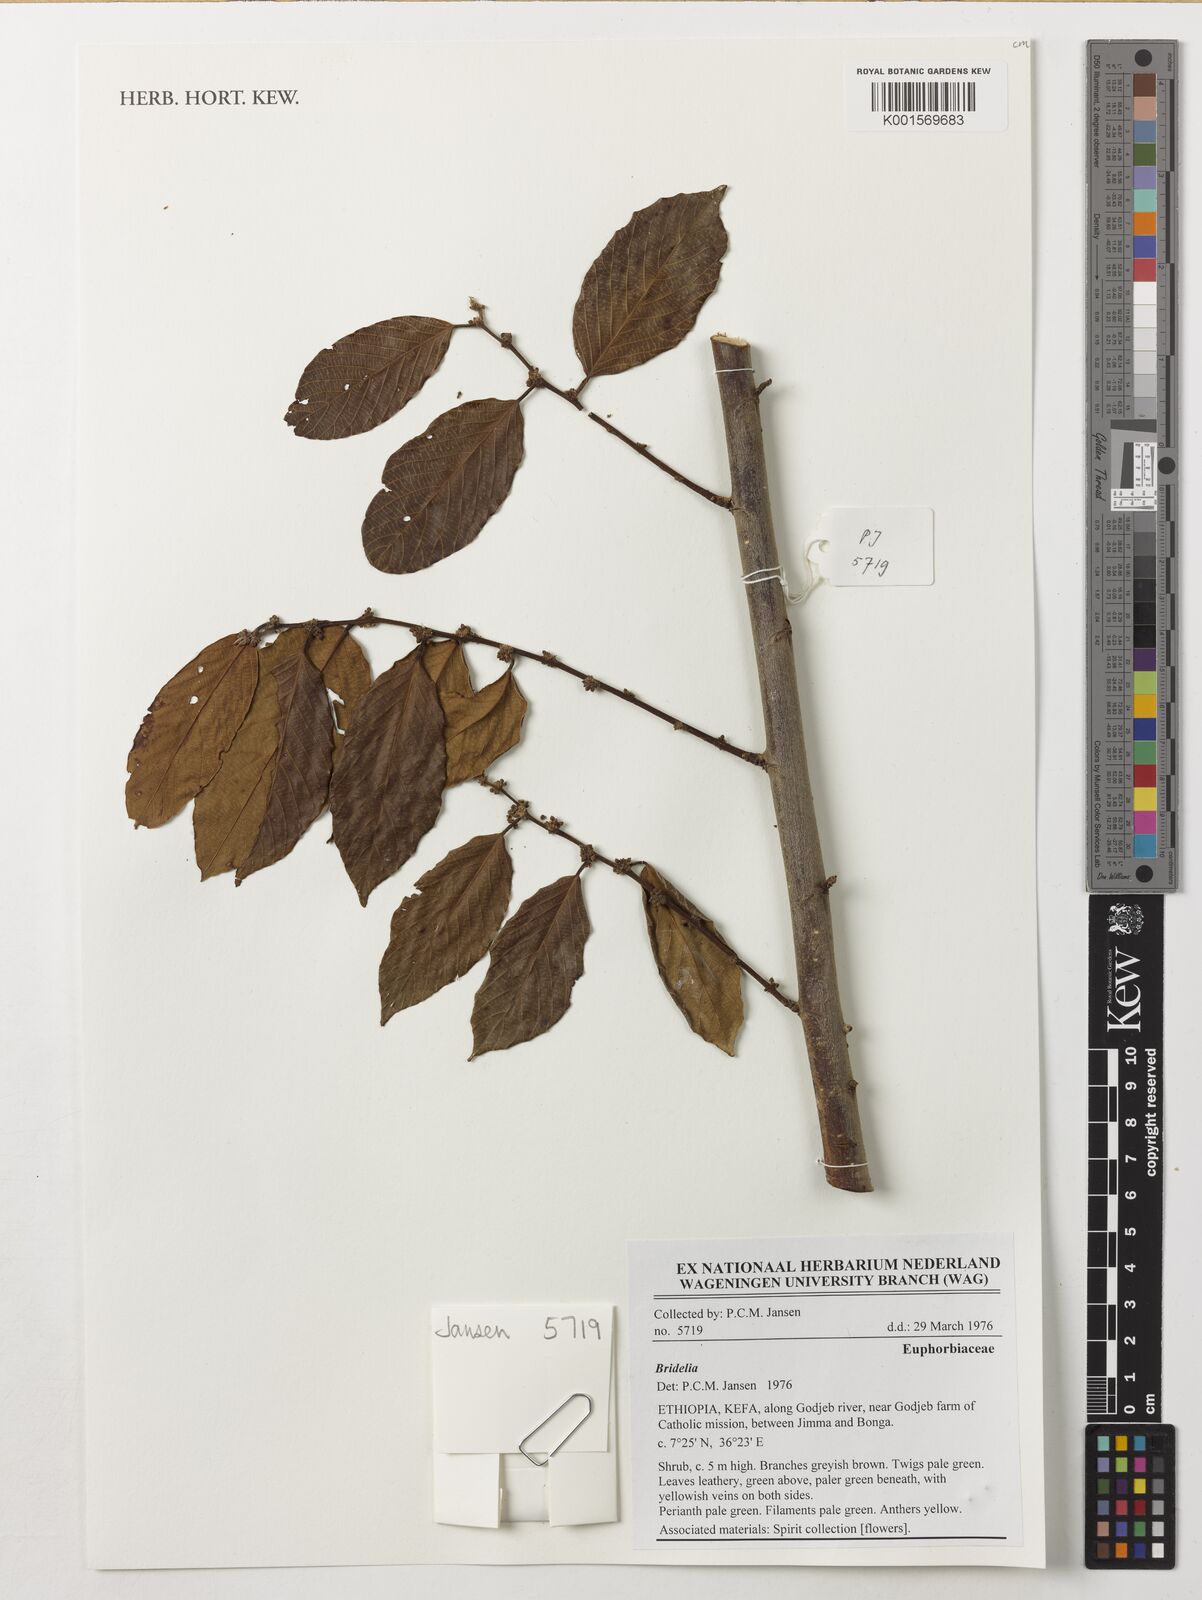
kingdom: Plantae
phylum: Tracheophyta
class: Magnoliopsida
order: Malpighiales
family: Phyllanthaceae
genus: Bridelia
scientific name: Bridelia
